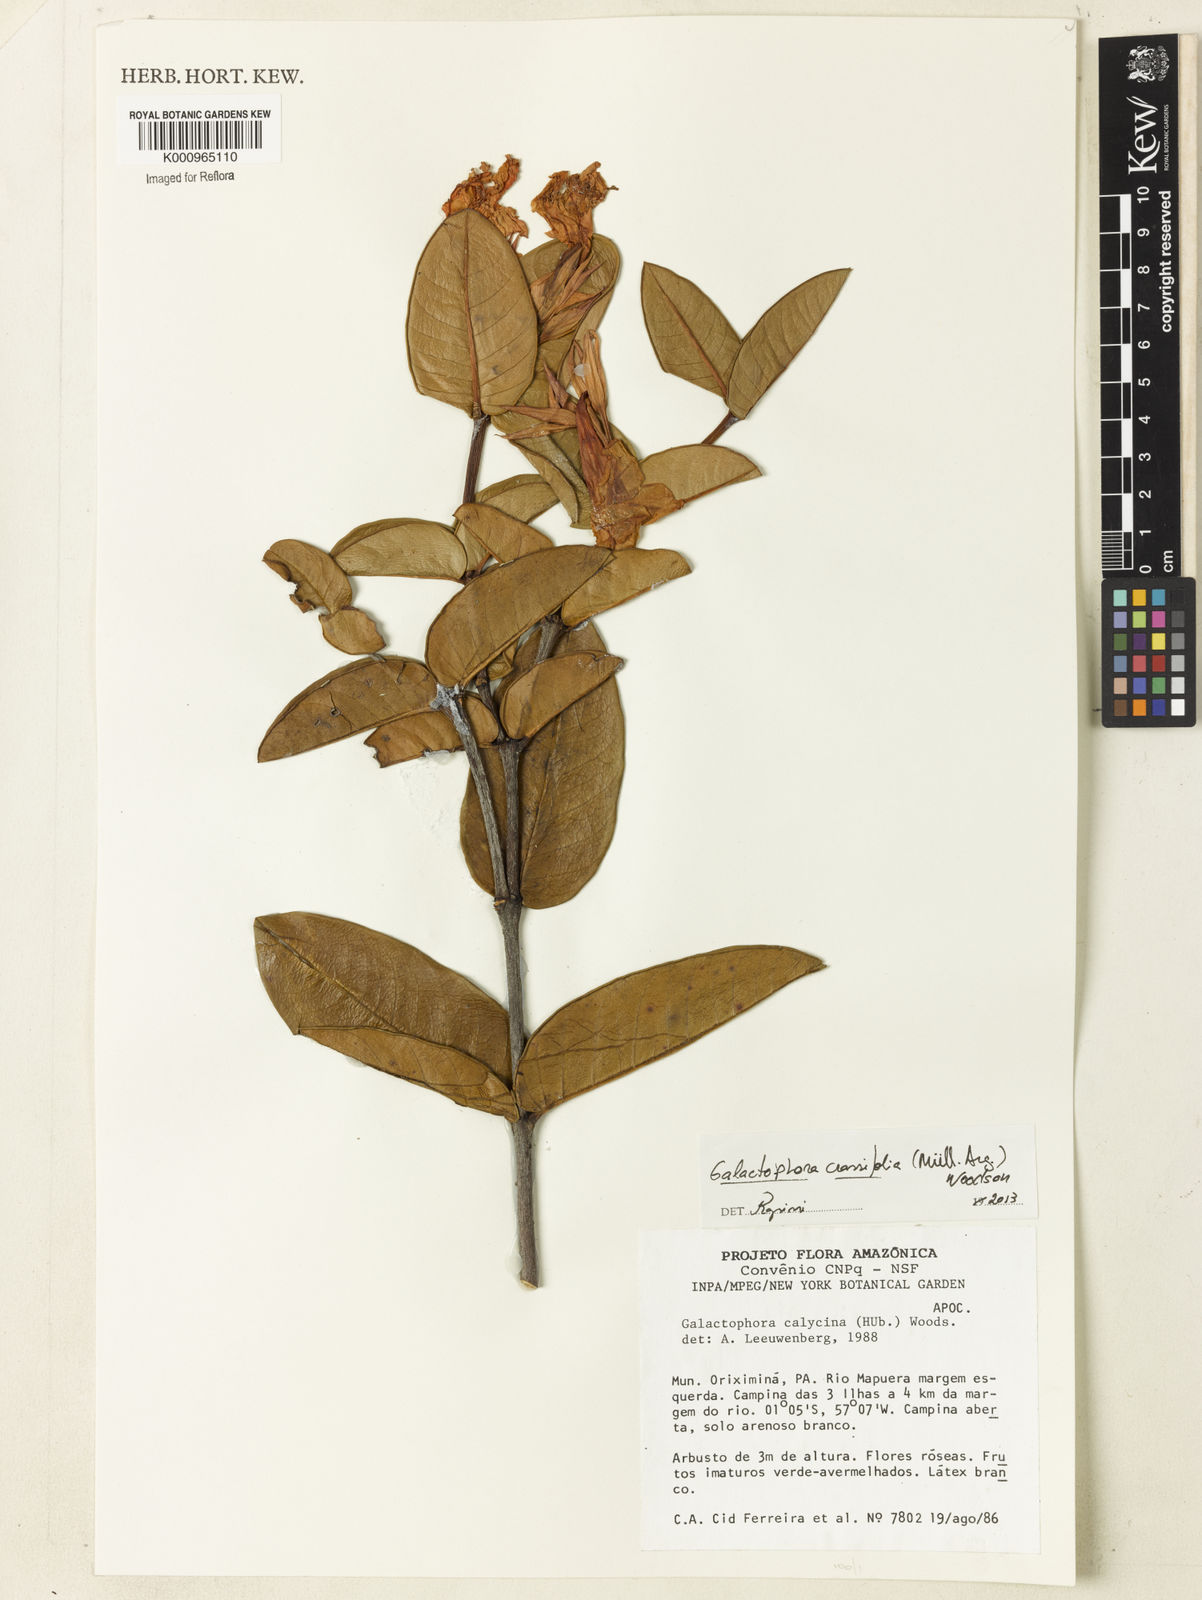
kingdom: Plantae
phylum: Tracheophyta
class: Magnoliopsida
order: Gentianales
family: Apocynaceae
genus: Galactophora
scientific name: Galactophora
